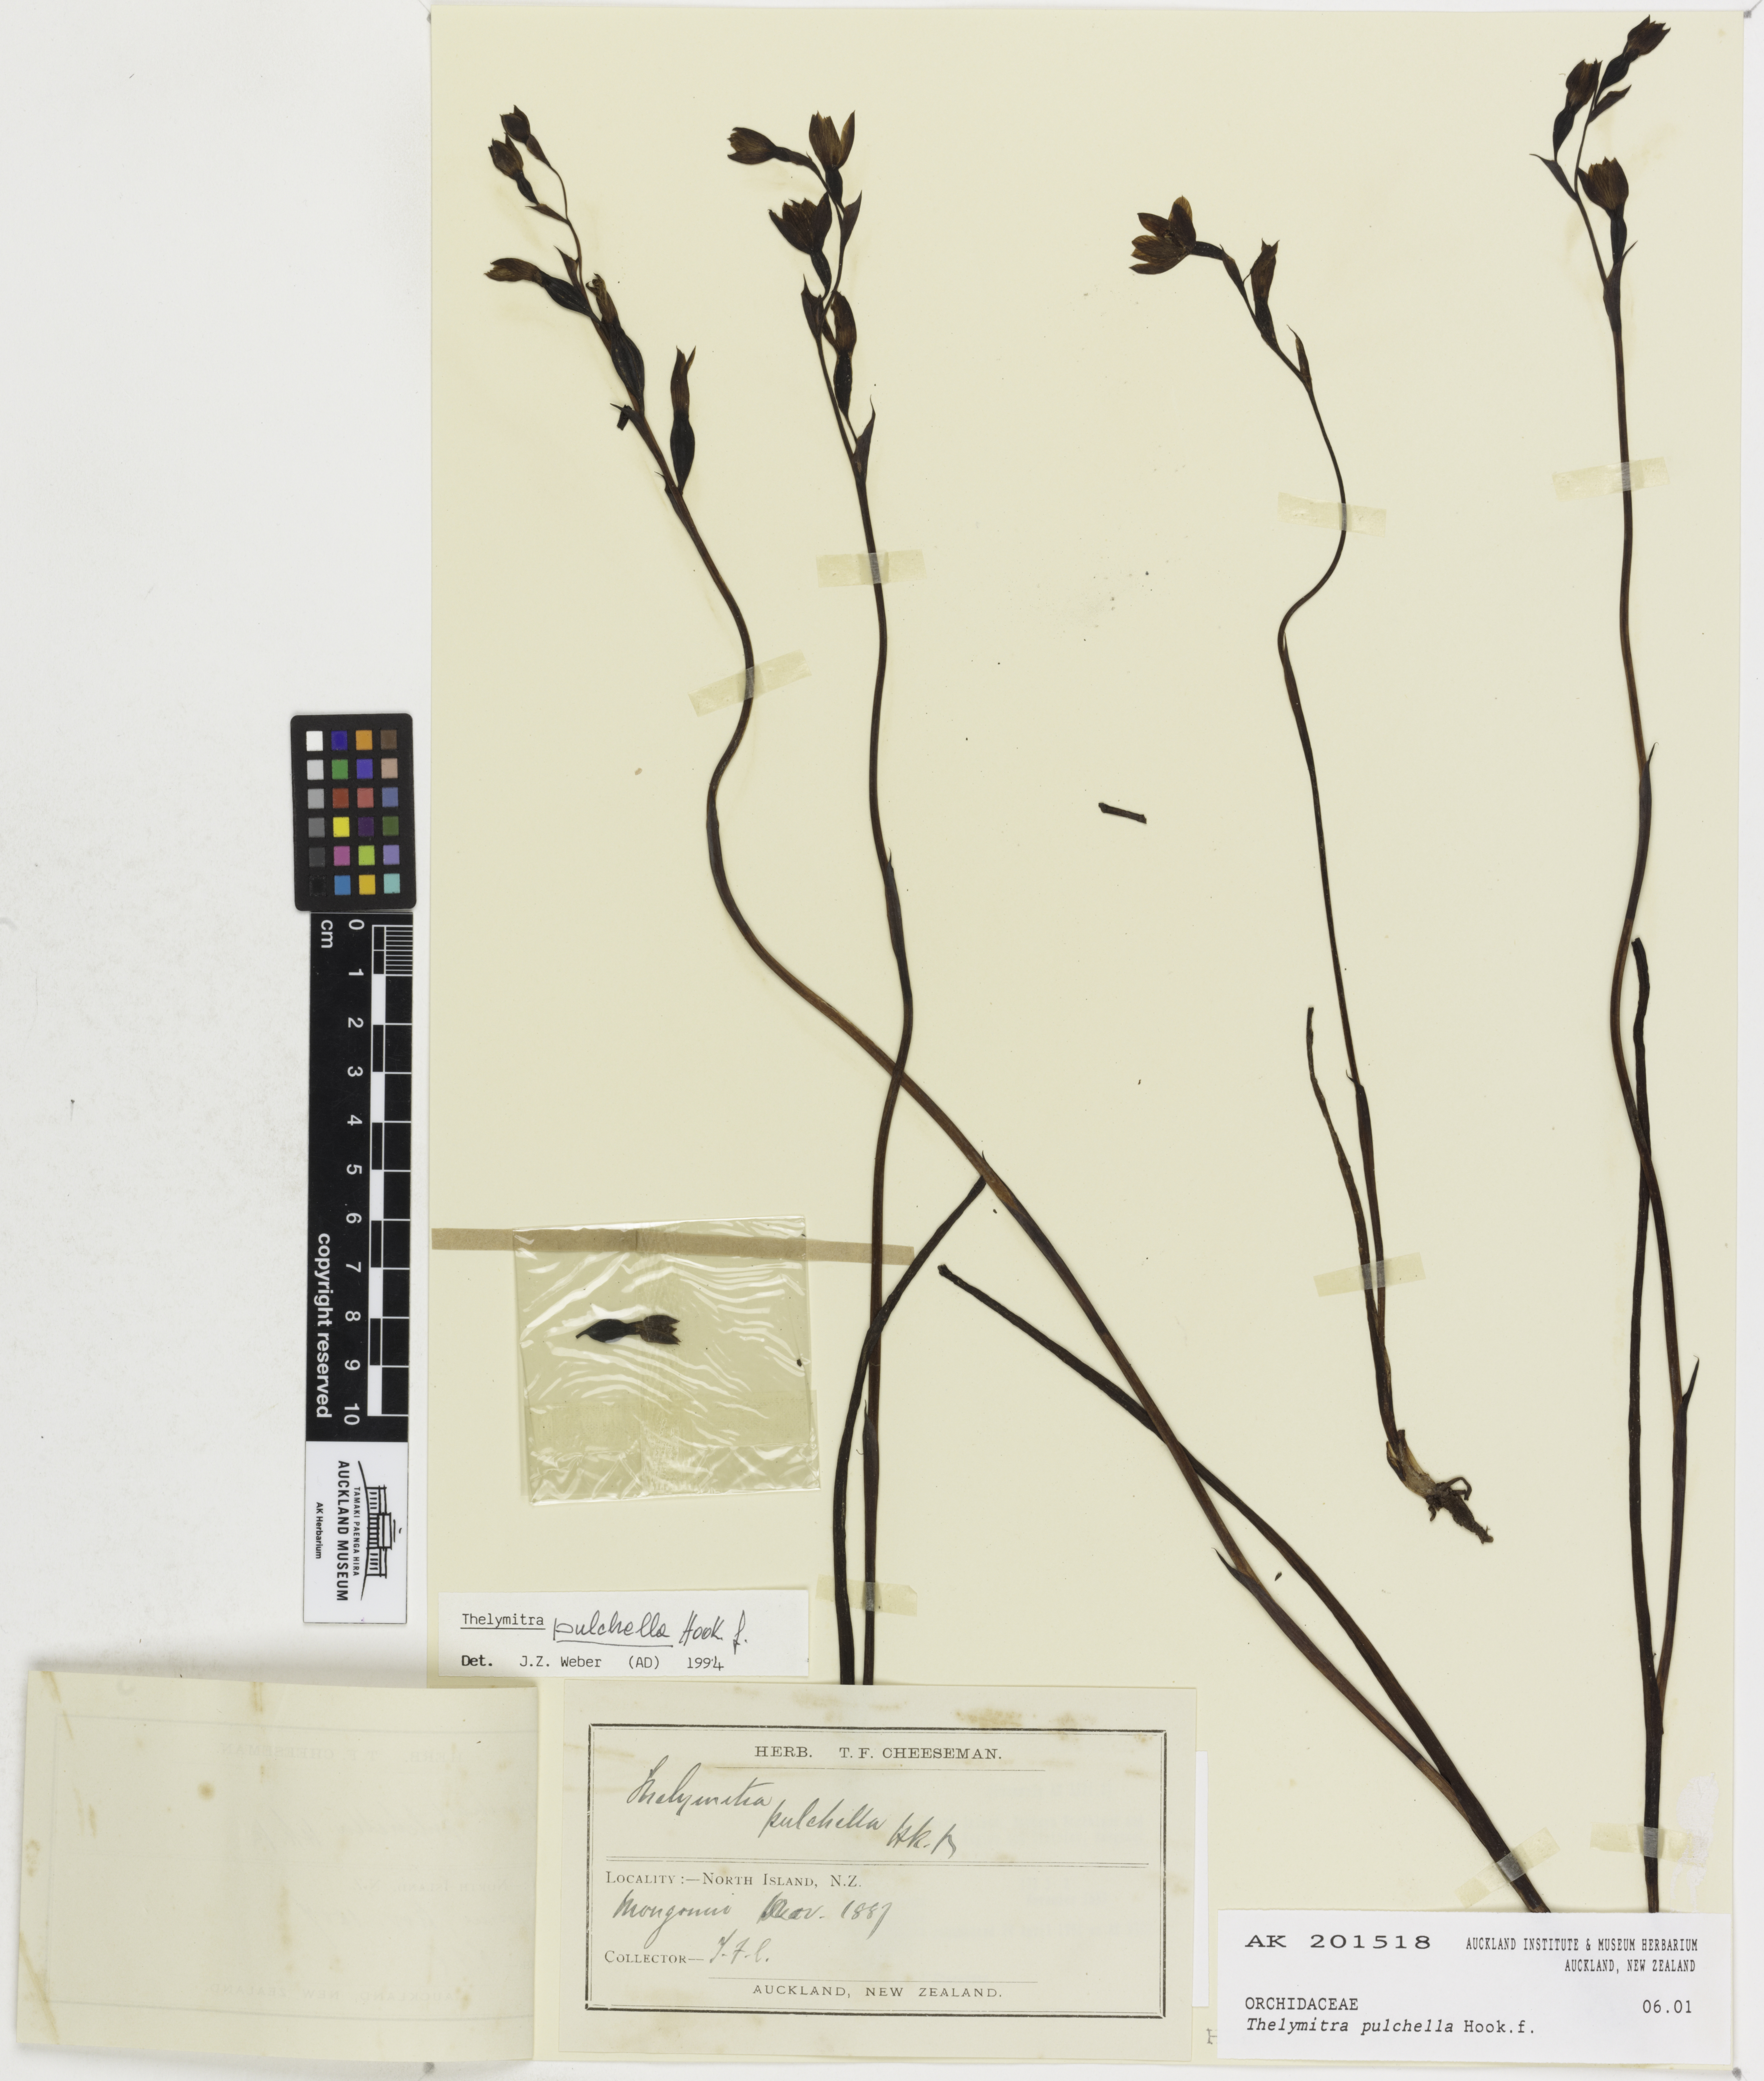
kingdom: Plantae
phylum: Tracheophyta
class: Liliopsida
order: Asparagales
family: Orchidaceae
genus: Thelymitra
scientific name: Thelymitra pulchella
